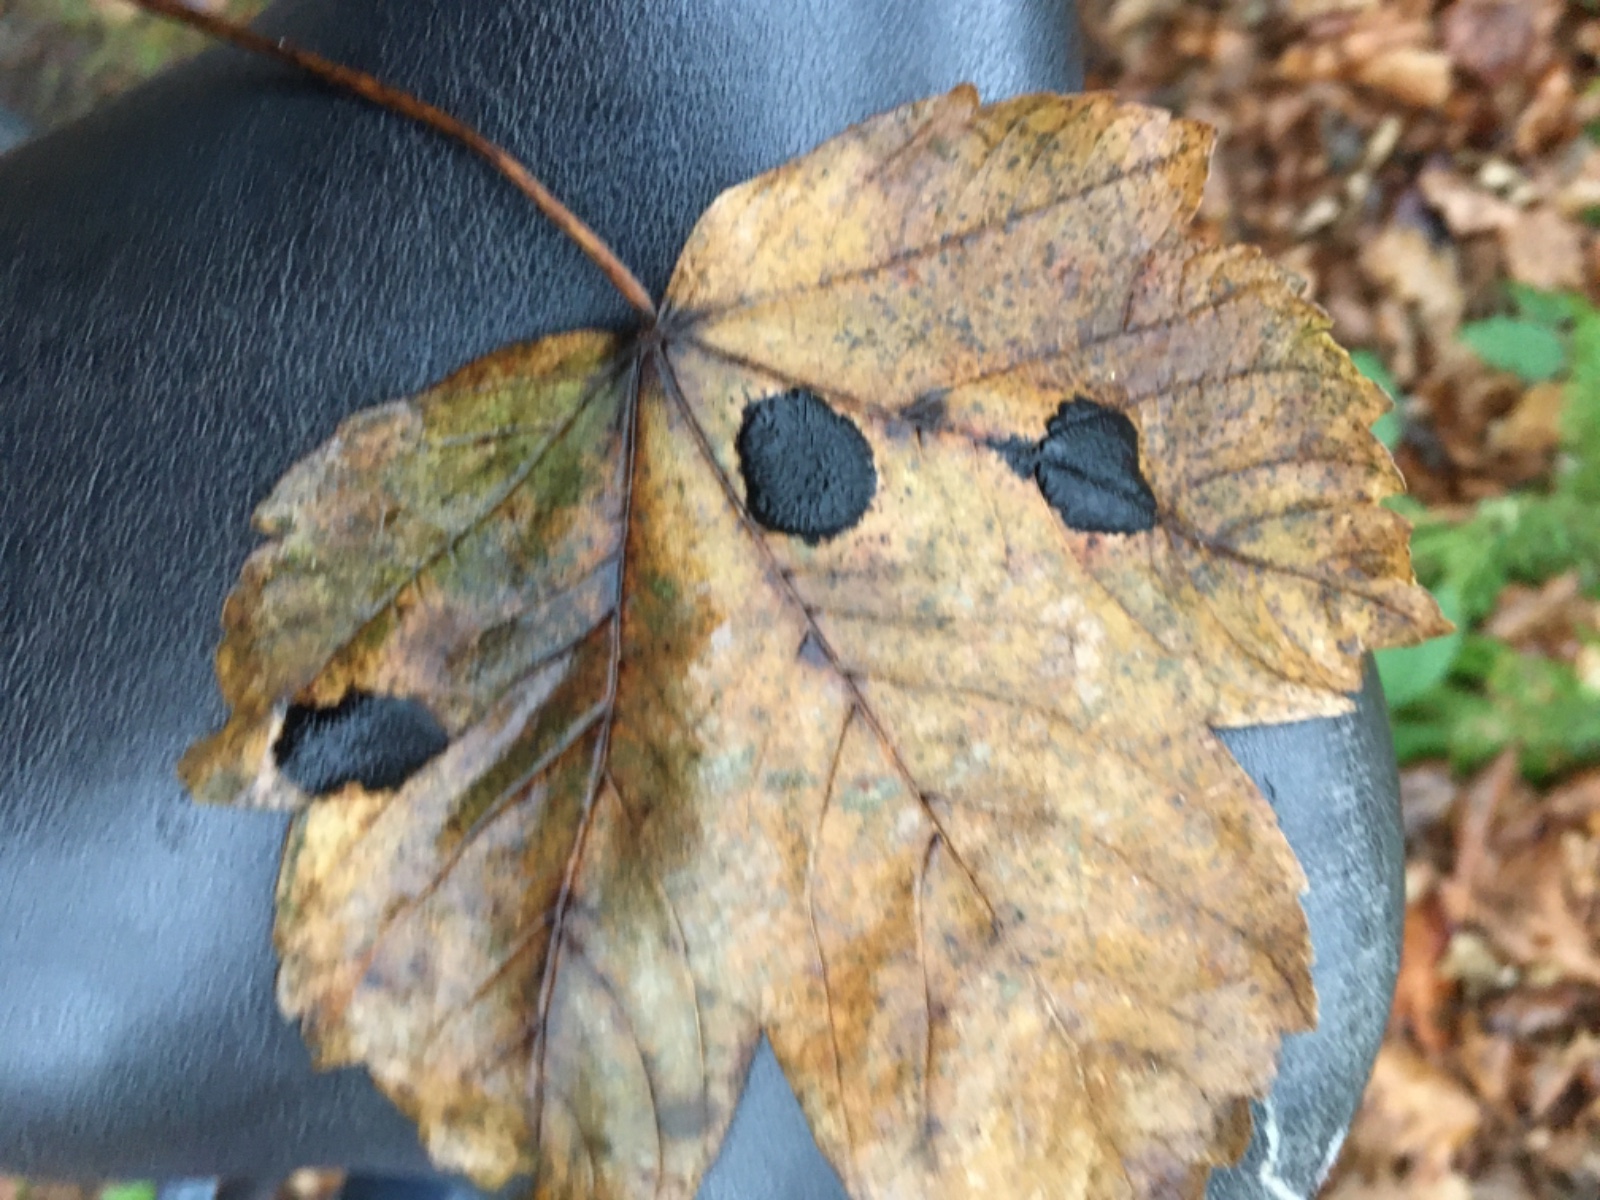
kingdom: Fungi
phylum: Ascomycota
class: Leotiomycetes
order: Rhytismatales
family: Rhytismataceae
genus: Rhytisma
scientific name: Rhytisma acerinum
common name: ahorn-rynkeplet
